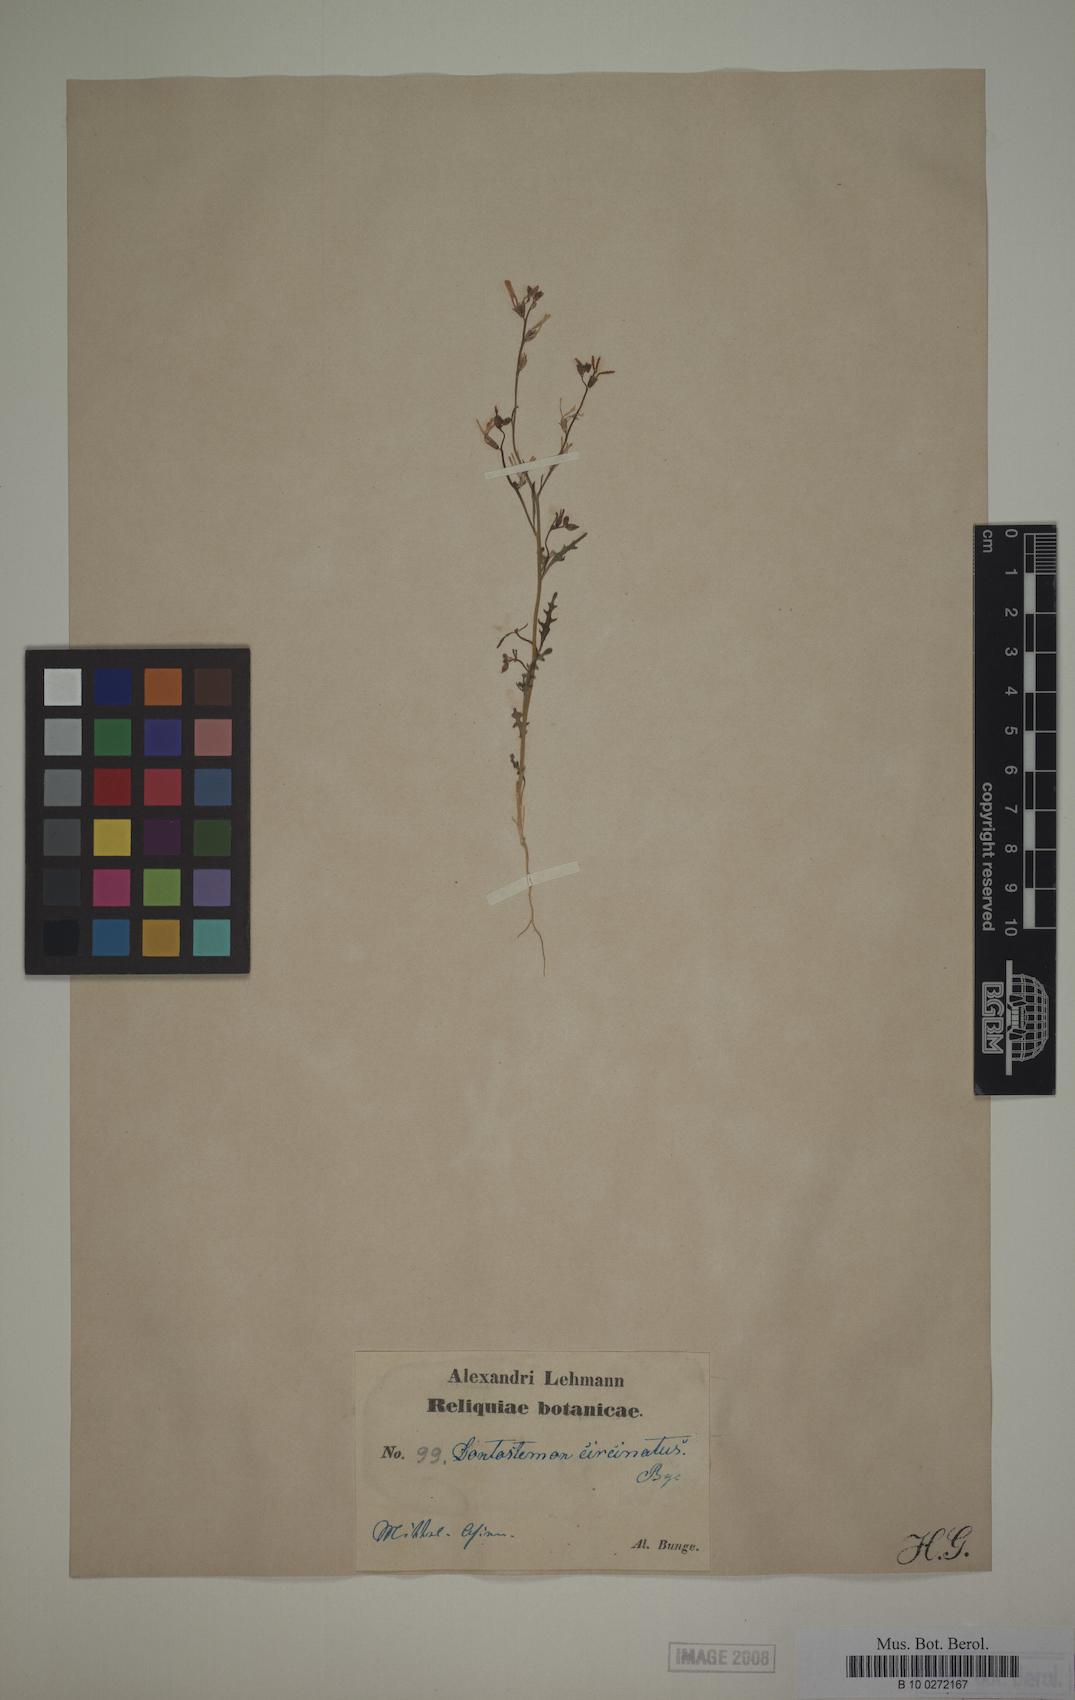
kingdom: Plantae
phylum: Tracheophyta
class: Magnoliopsida
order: Brassicales
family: Brassicaceae
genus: Strigosella
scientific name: Strigosella circinata
